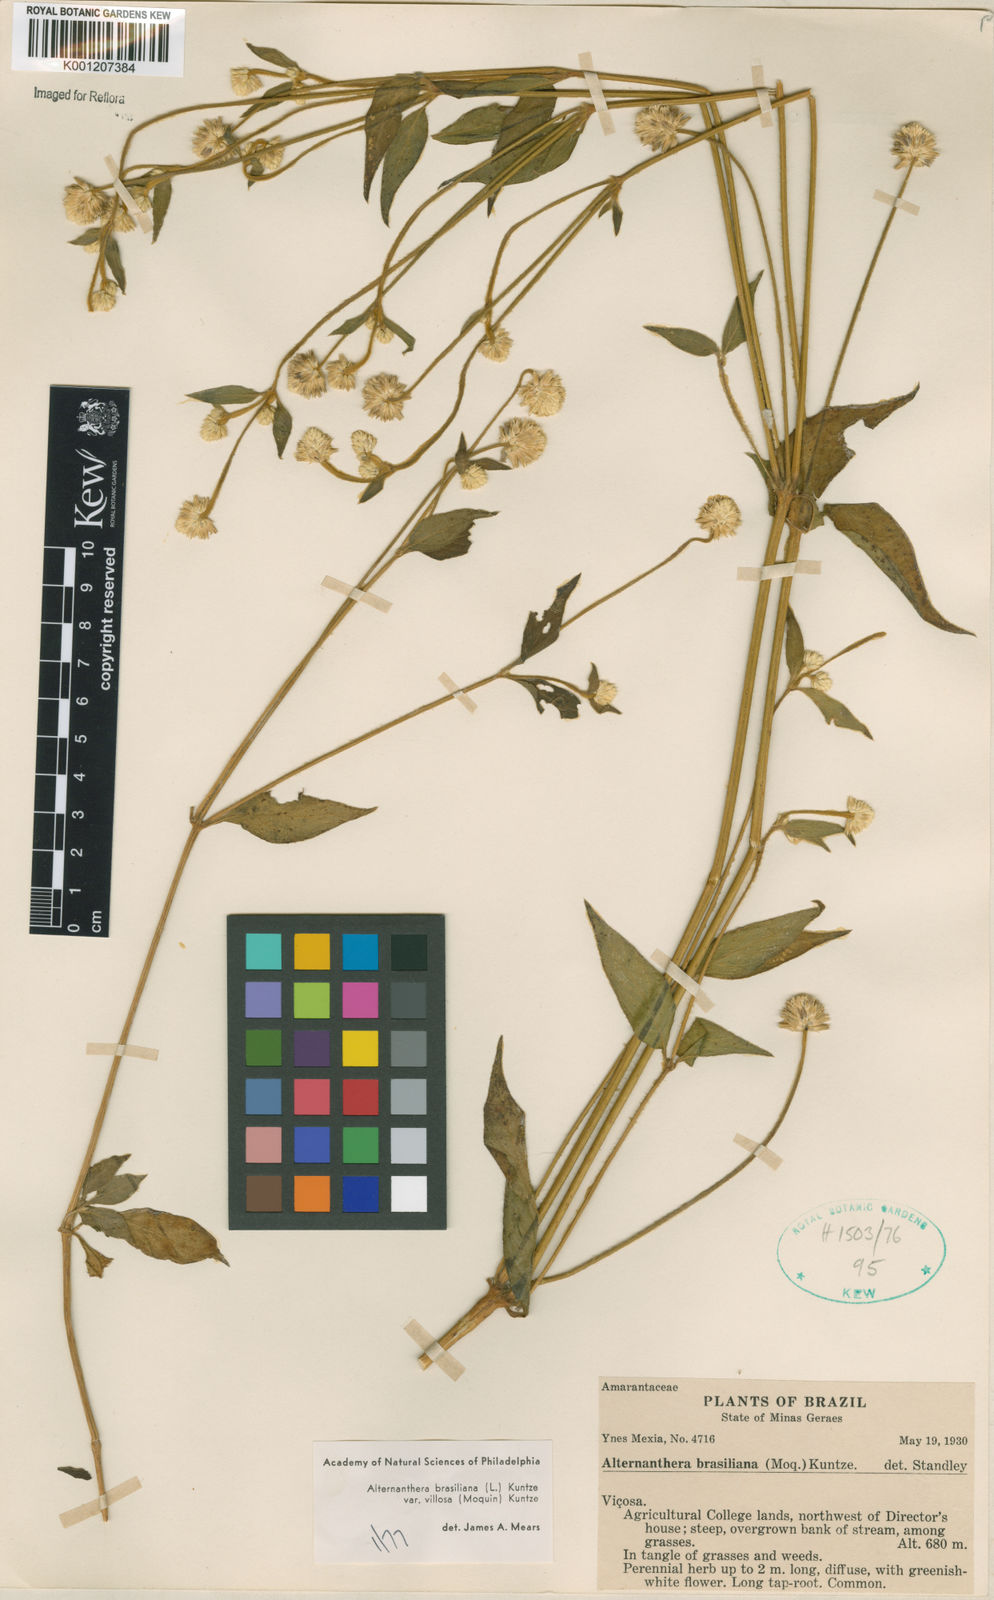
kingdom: Plantae
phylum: Tracheophyta
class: Magnoliopsida
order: Caryophyllales
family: Amaranthaceae
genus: Alternanthera
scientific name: Alternanthera ramosissima
